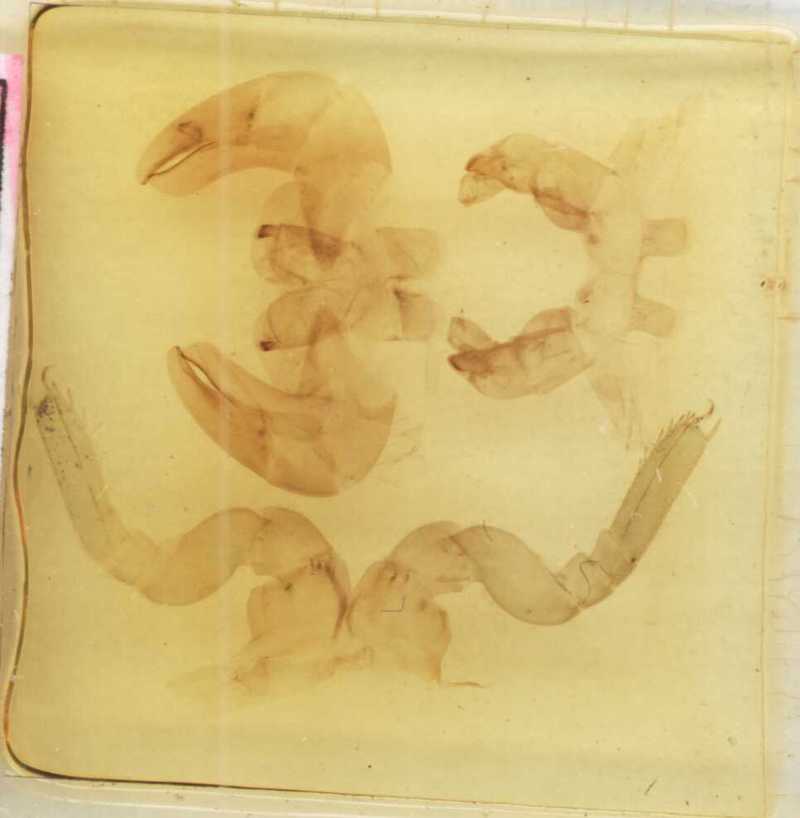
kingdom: Animalia
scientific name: Animalia
